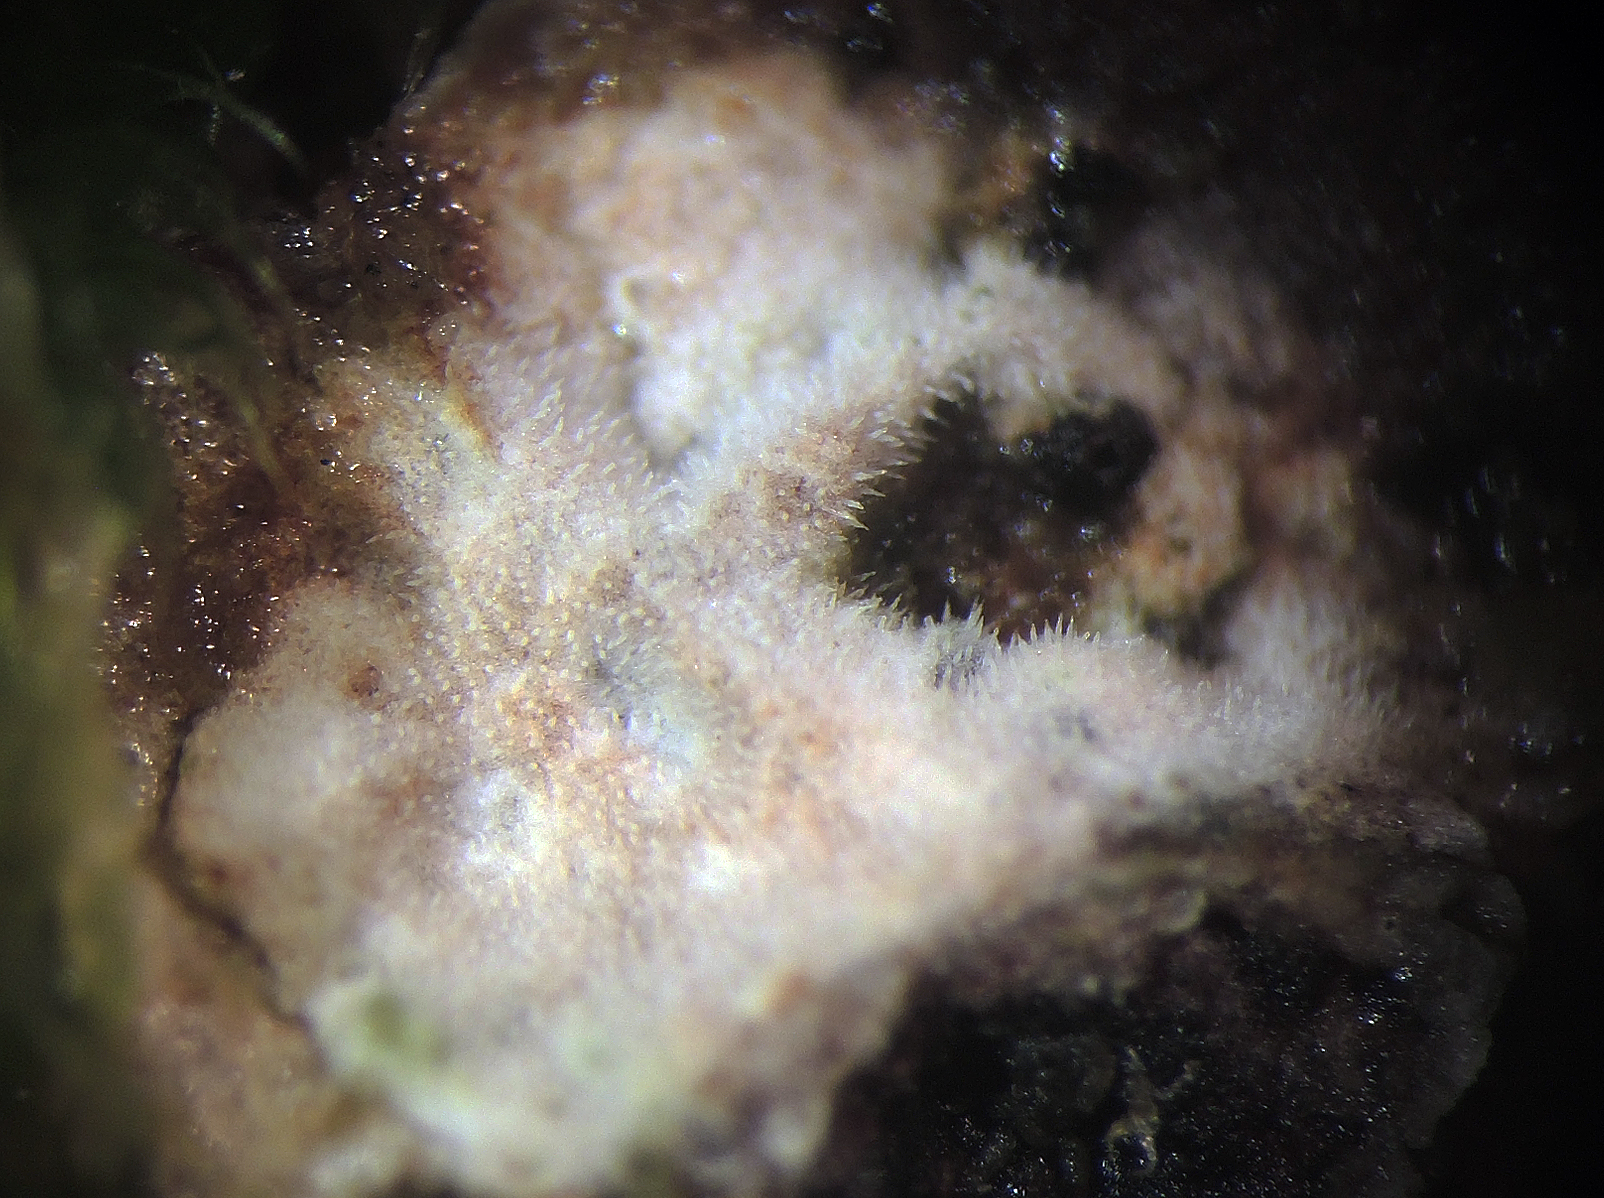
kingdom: Fungi
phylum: Basidiomycota
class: Agaricomycetes
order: Trechisporales
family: Hydnodontaceae
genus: Tubulicium
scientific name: Tubulicium vermiferum
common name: hvalsporet slynghinde
